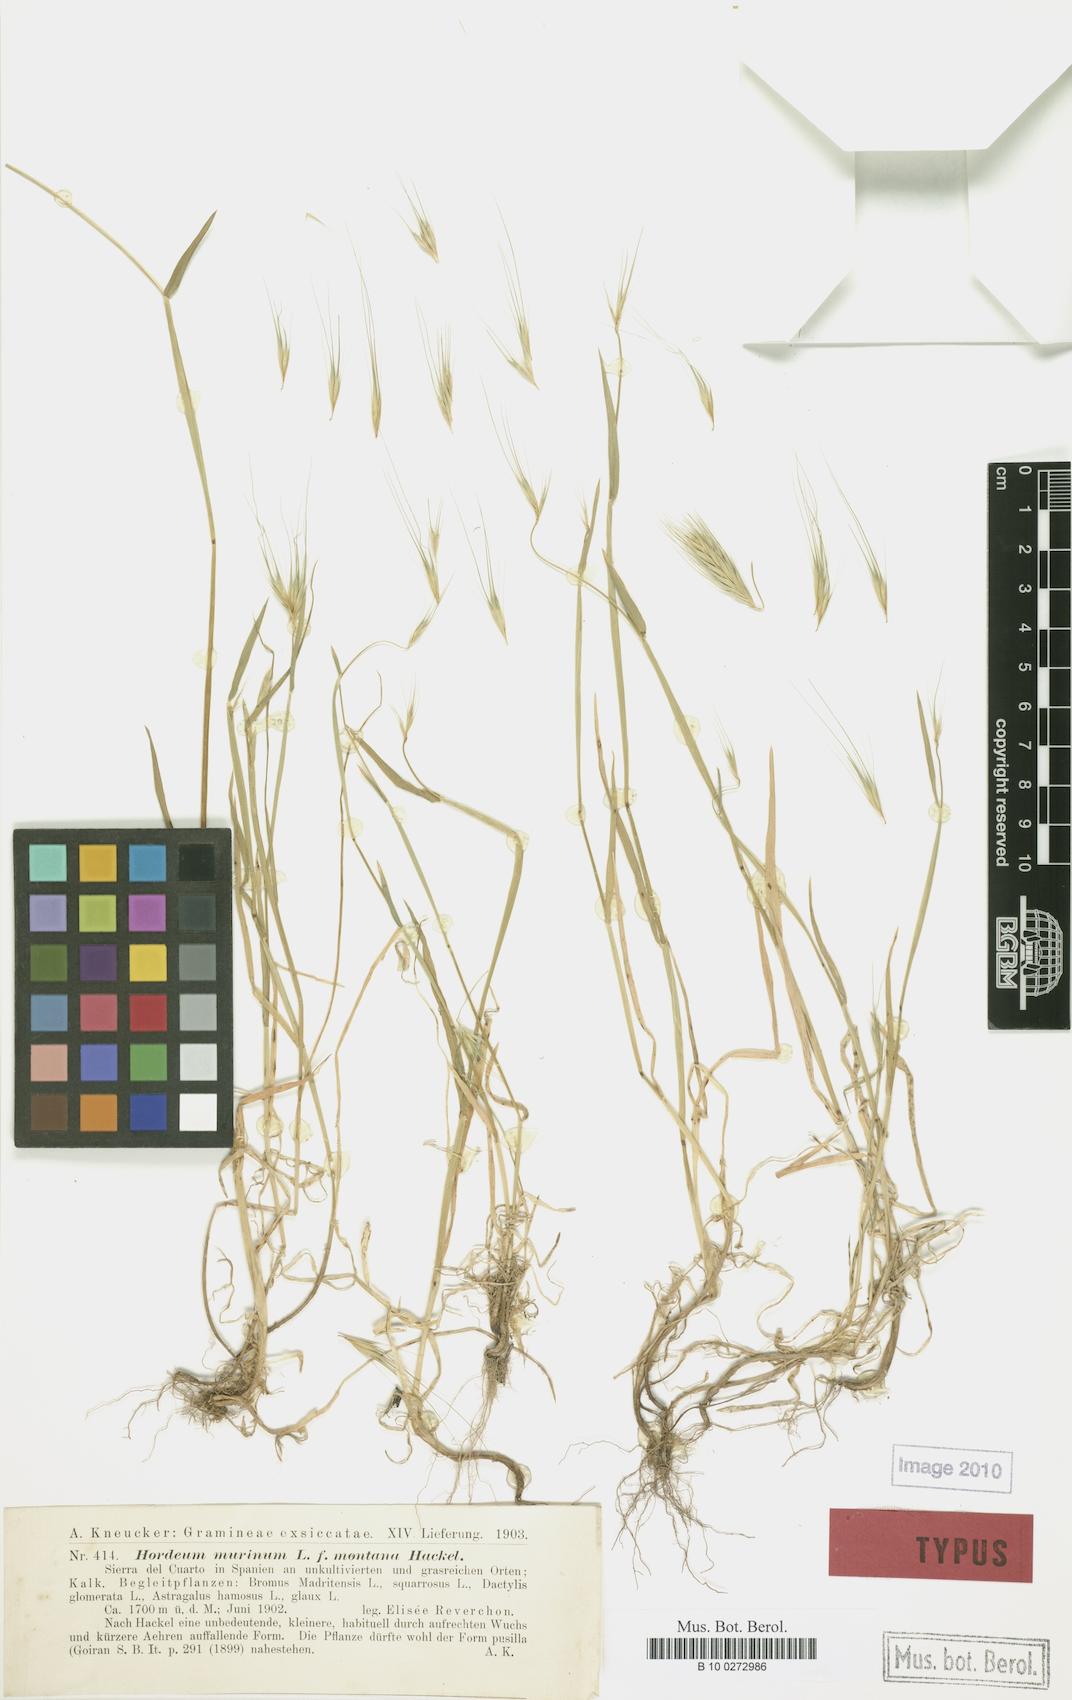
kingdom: Plantae
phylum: Tracheophyta
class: Liliopsida
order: Poales
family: Poaceae
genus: Hordeum
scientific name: Hordeum murinum
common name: Wall barley
